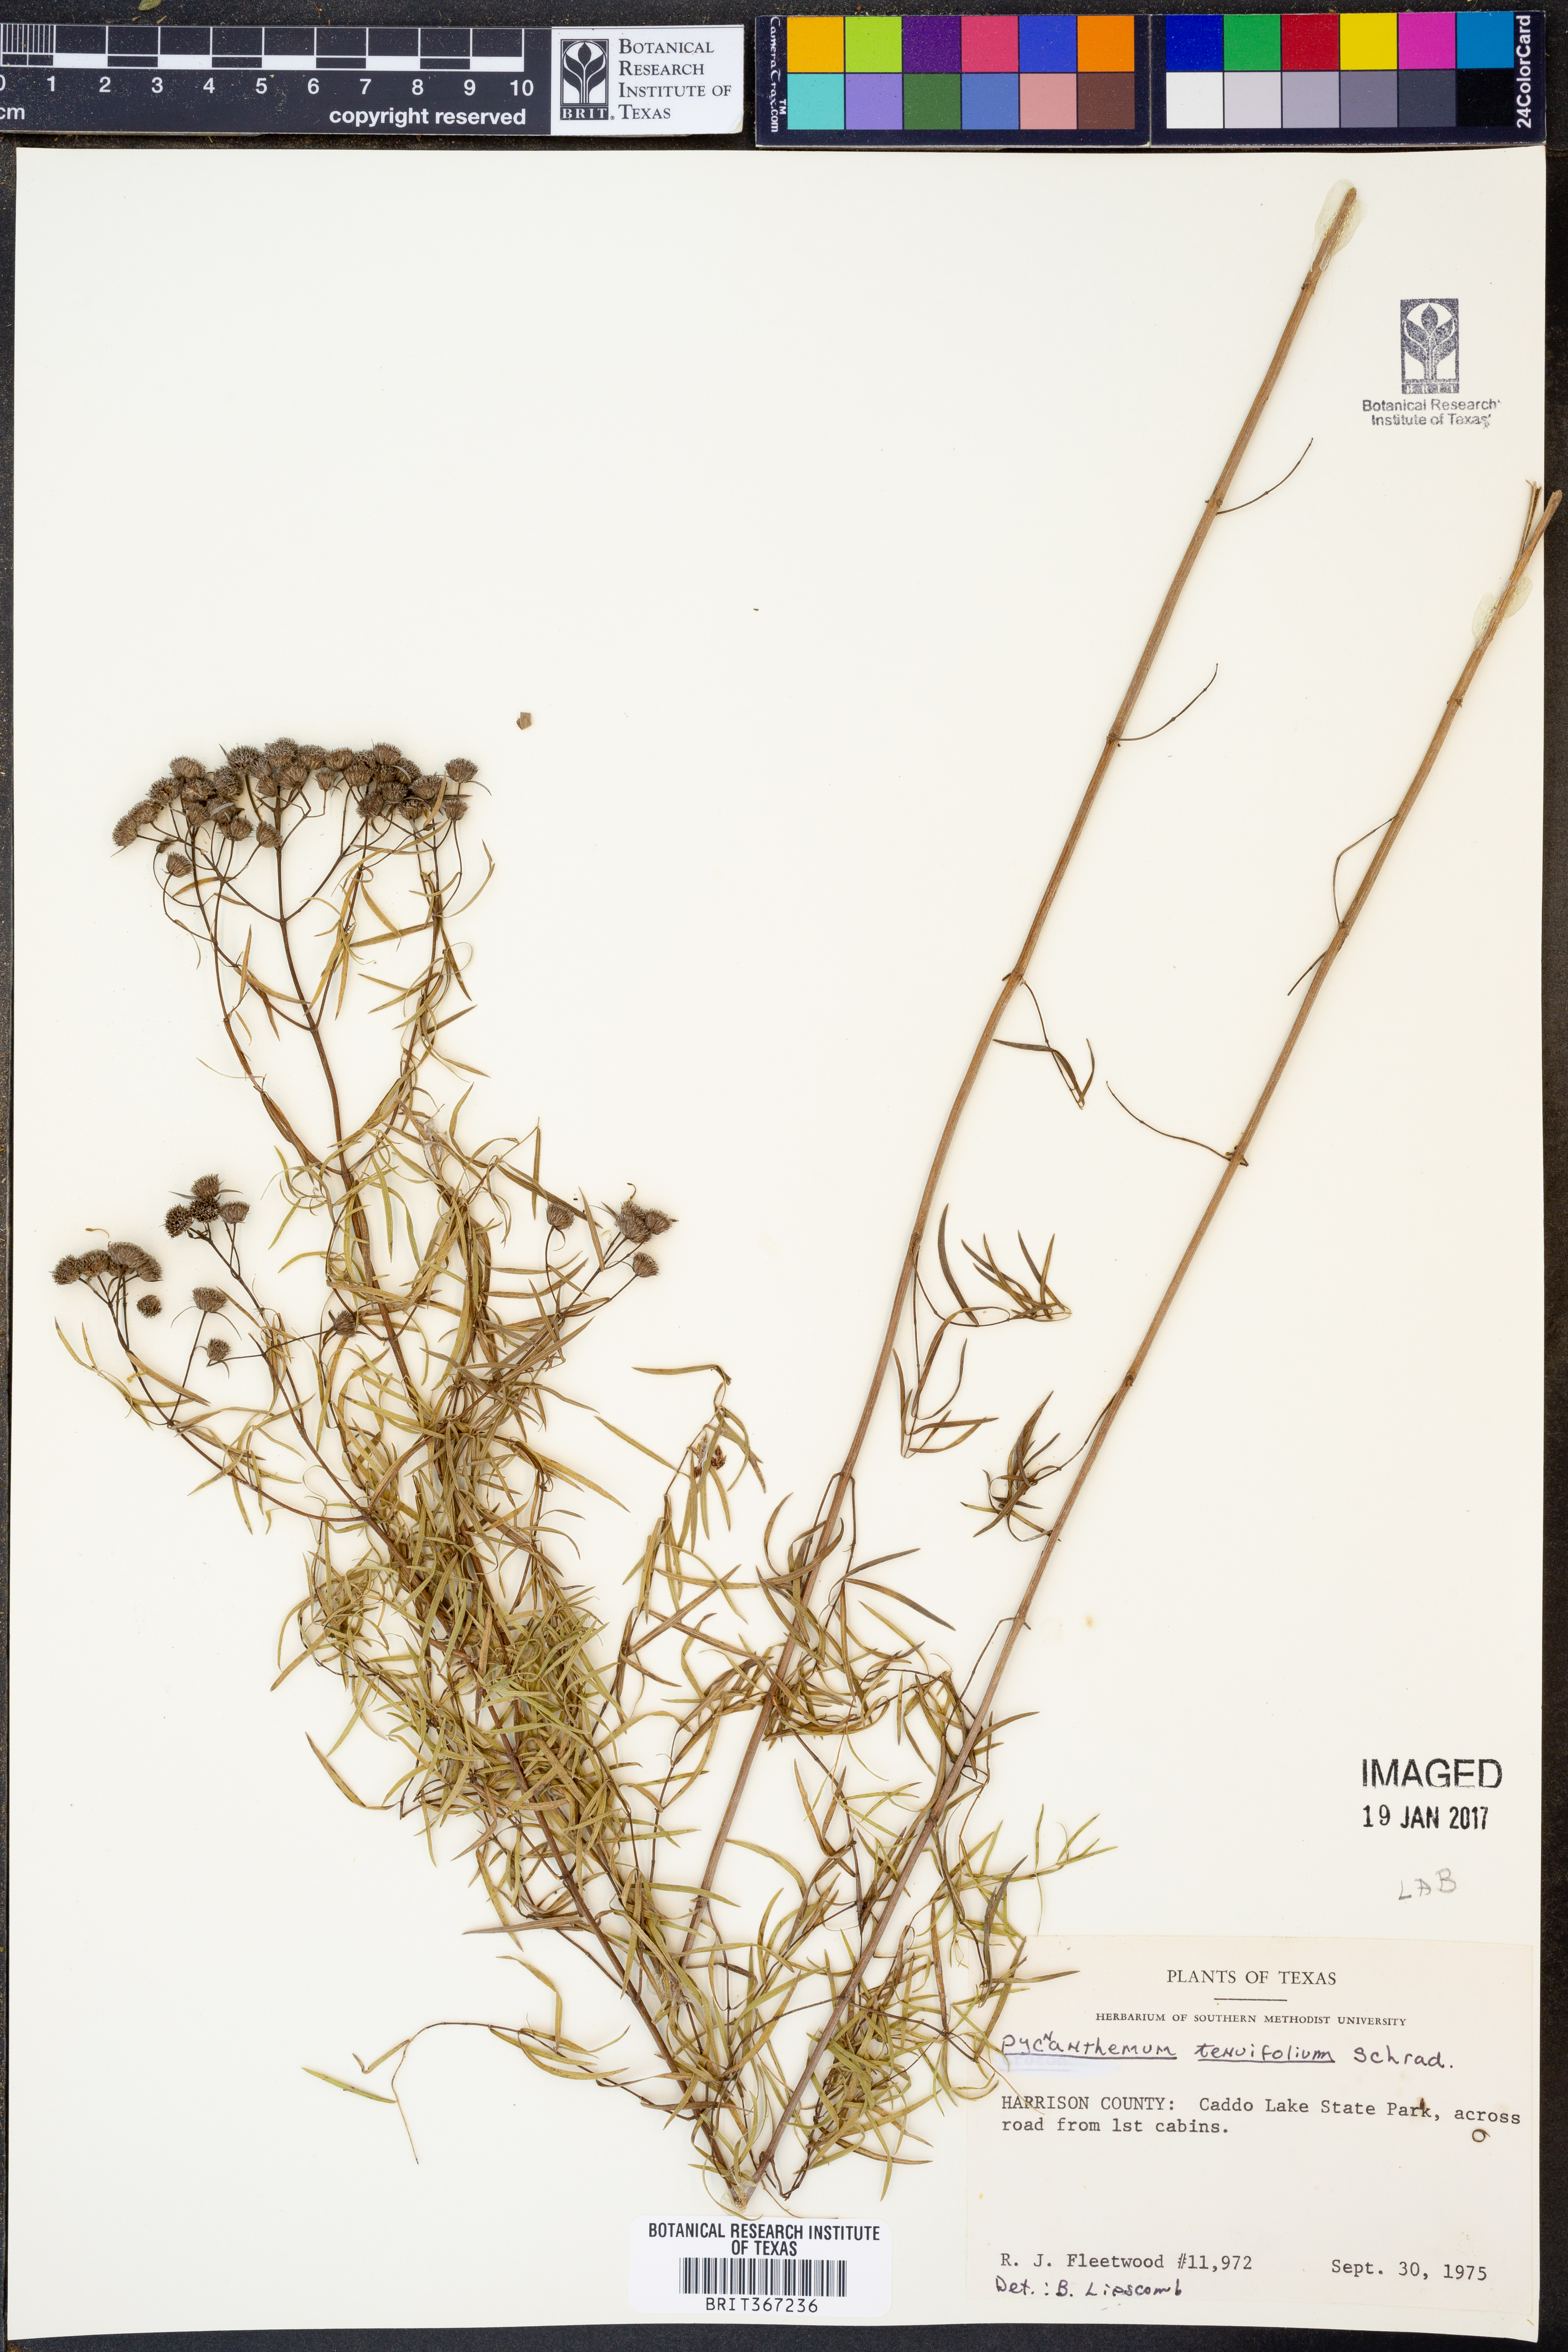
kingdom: Plantae
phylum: Tracheophyta
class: Magnoliopsida
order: Lamiales
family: Lamiaceae
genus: Pycnanthemum
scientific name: Pycnanthemum tenuifolium
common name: Narrow-leaf mountain-mint
